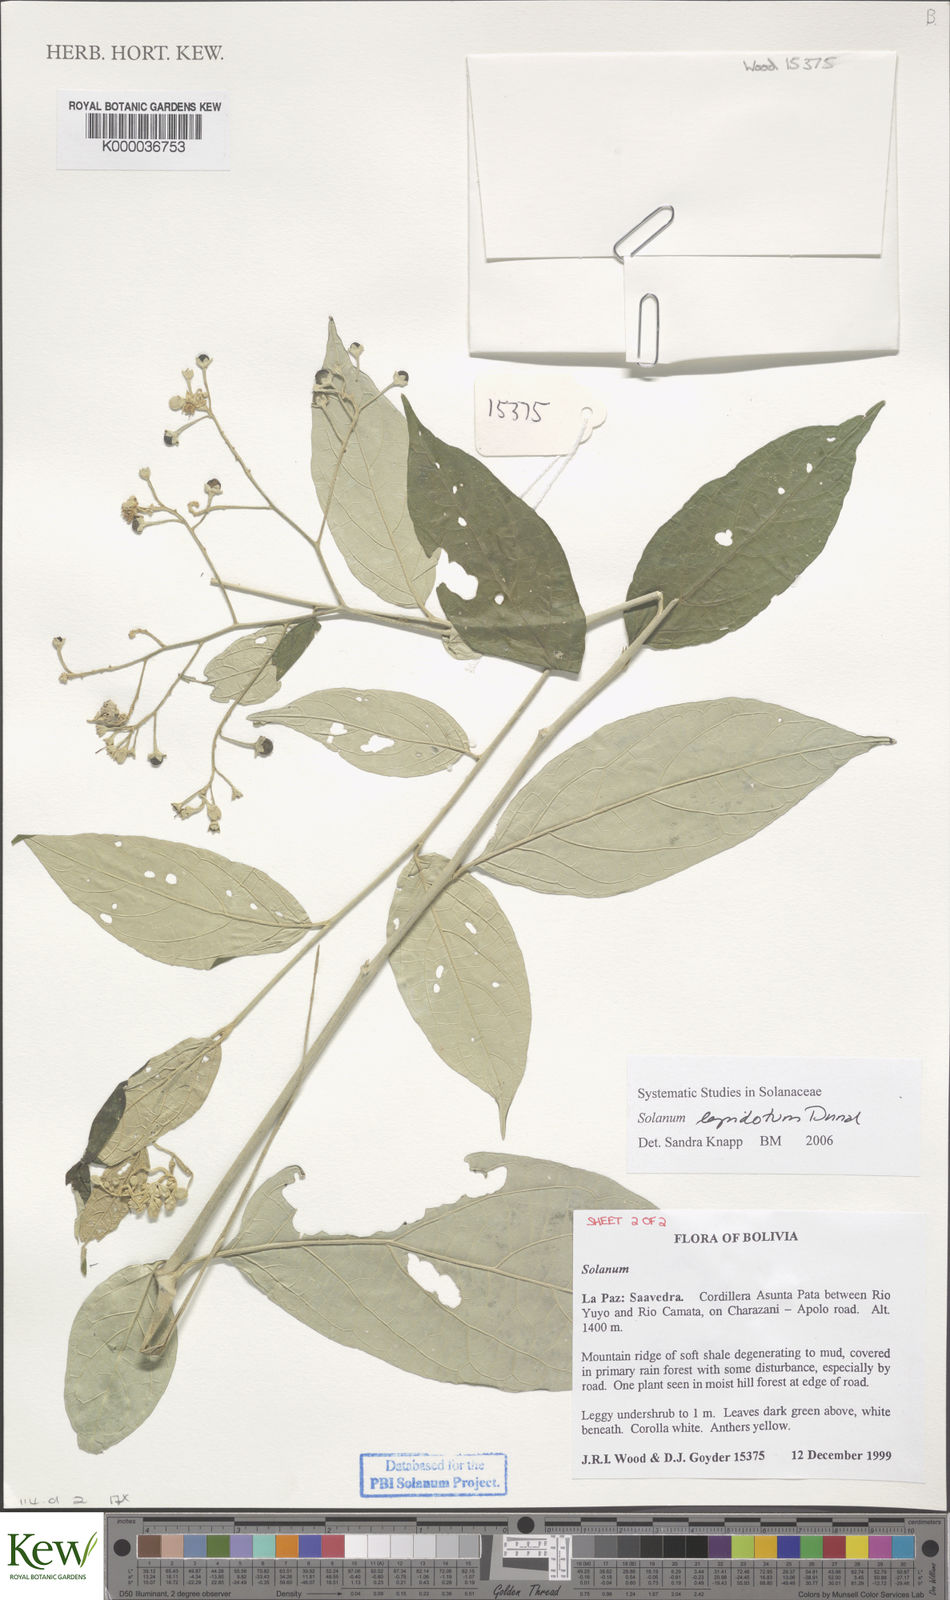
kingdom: Plantae
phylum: Tracheophyta
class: Magnoliopsida
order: Solanales
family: Solanaceae
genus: Solanum
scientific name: Solanum lepidotum
